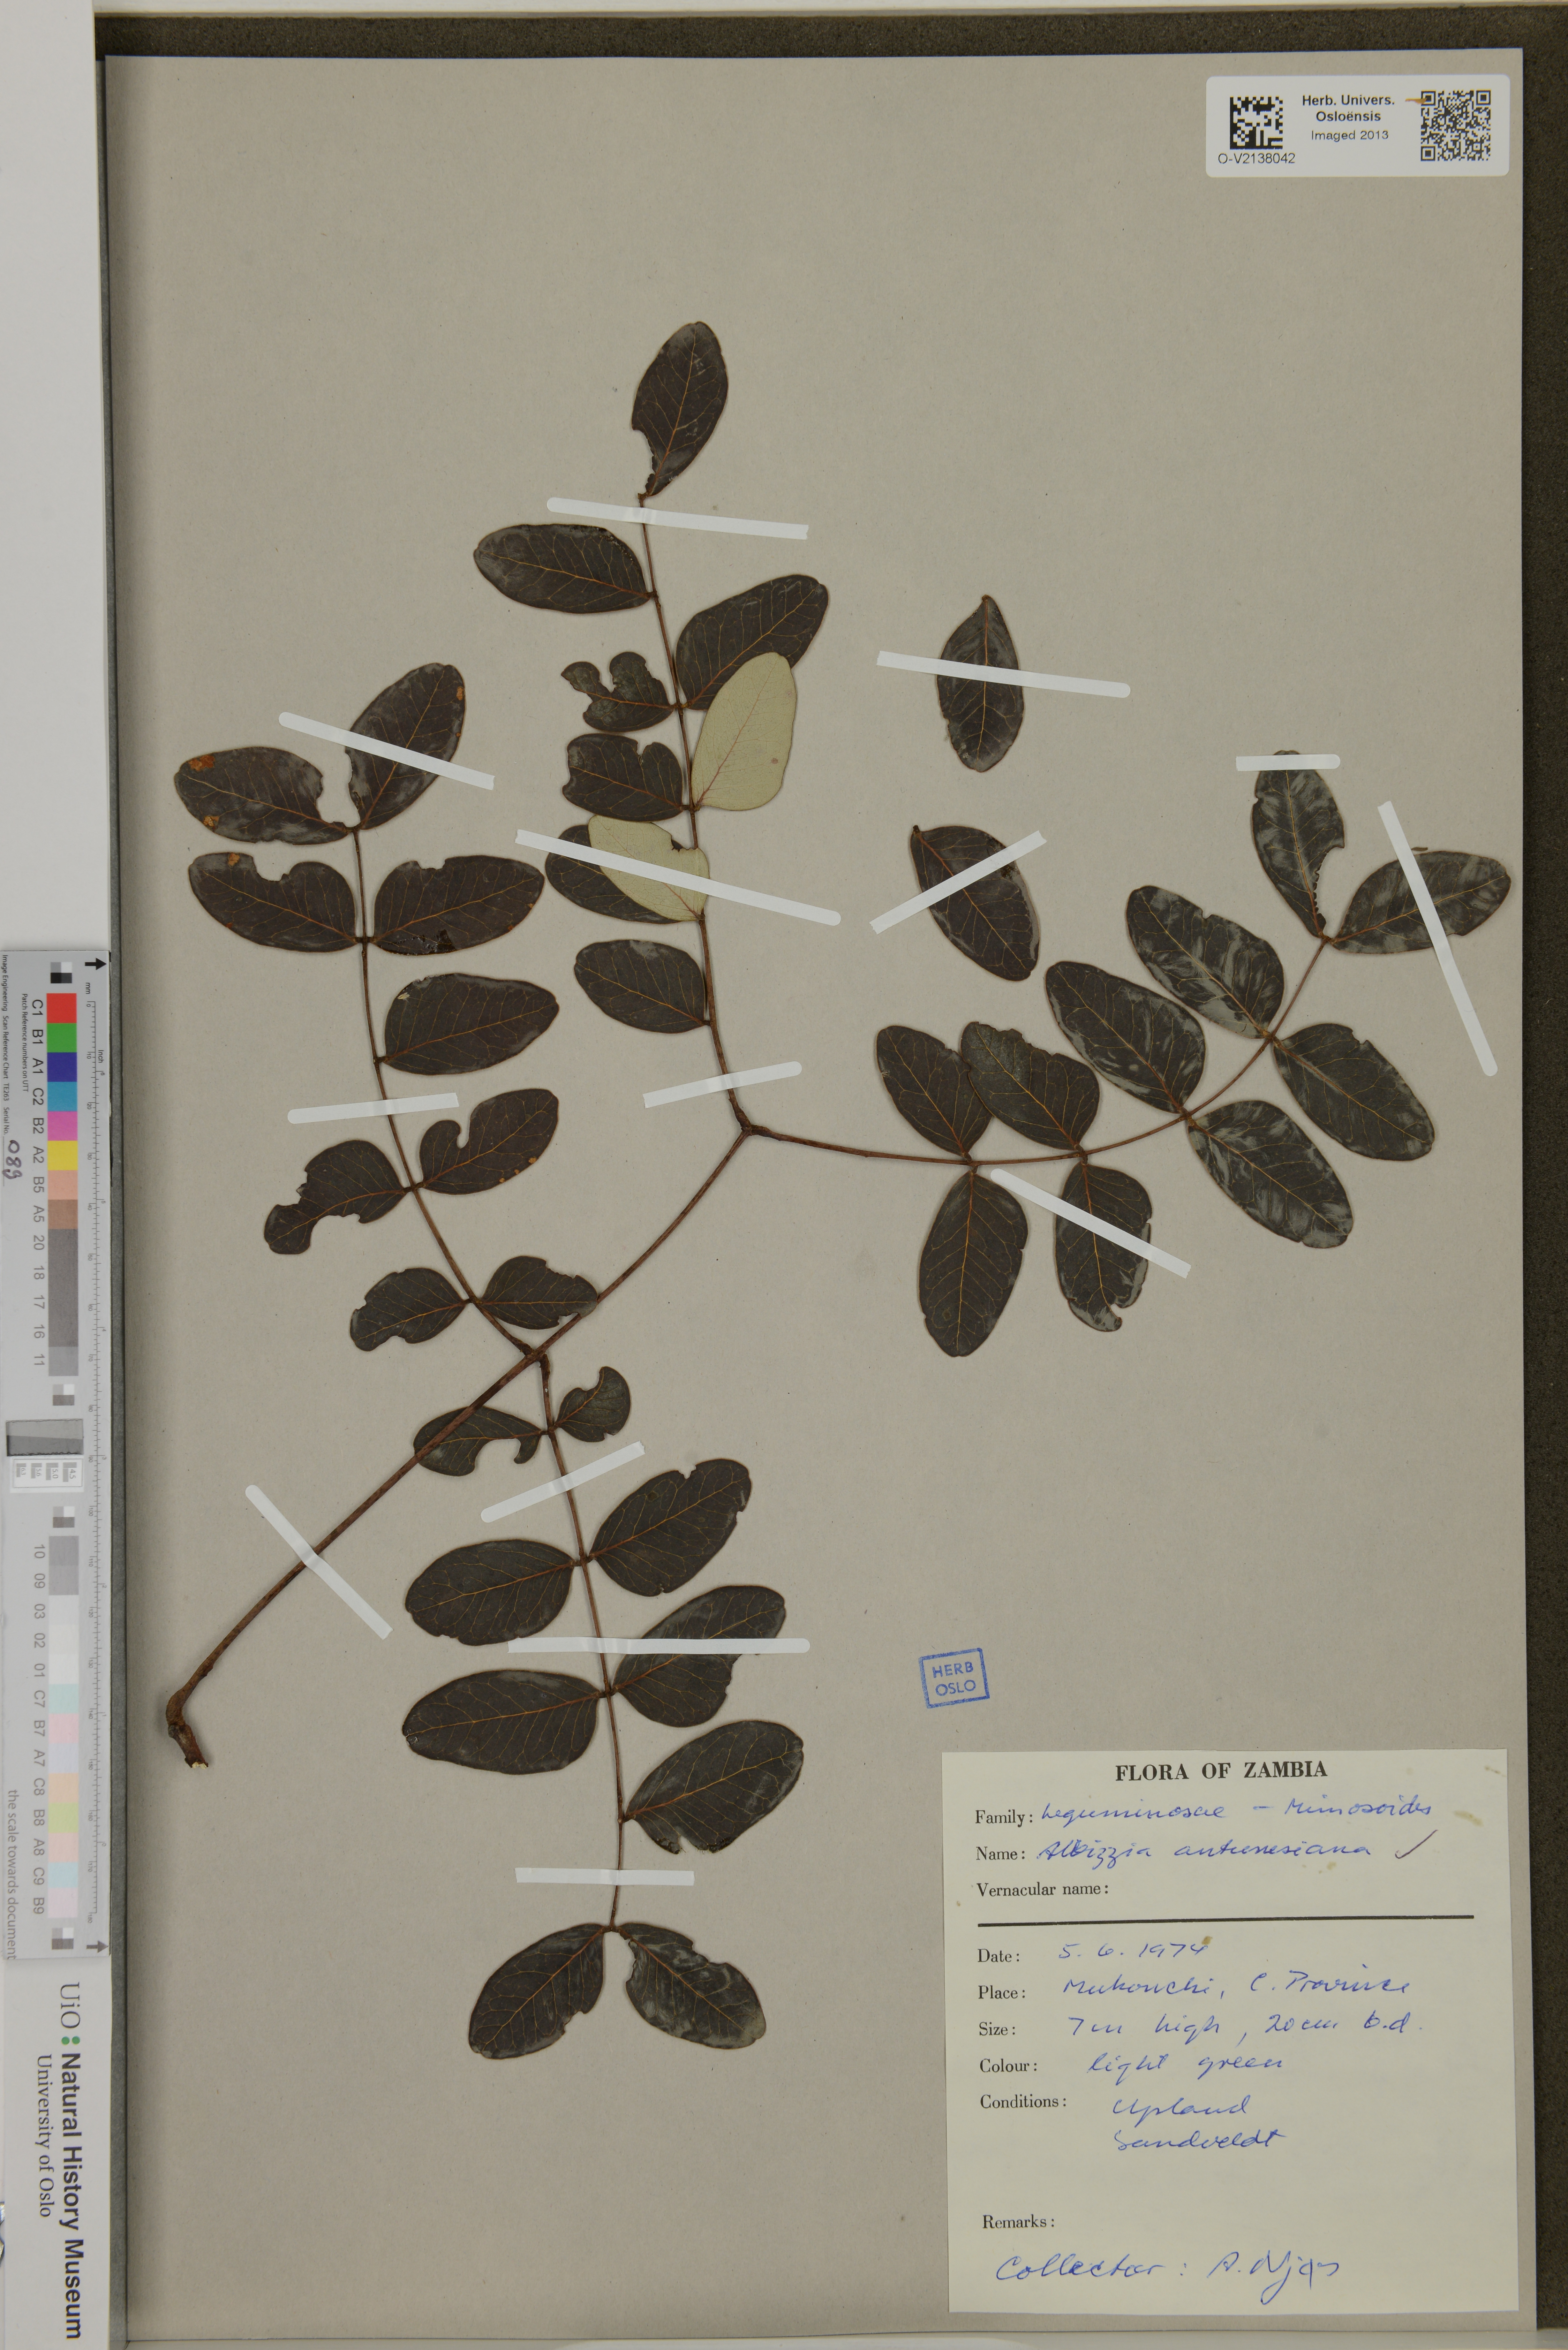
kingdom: Plantae
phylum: Tracheophyta
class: Magnoliopsida
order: Fabales
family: Fabaceae
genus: Albizia
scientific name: Albizia antunesiana
